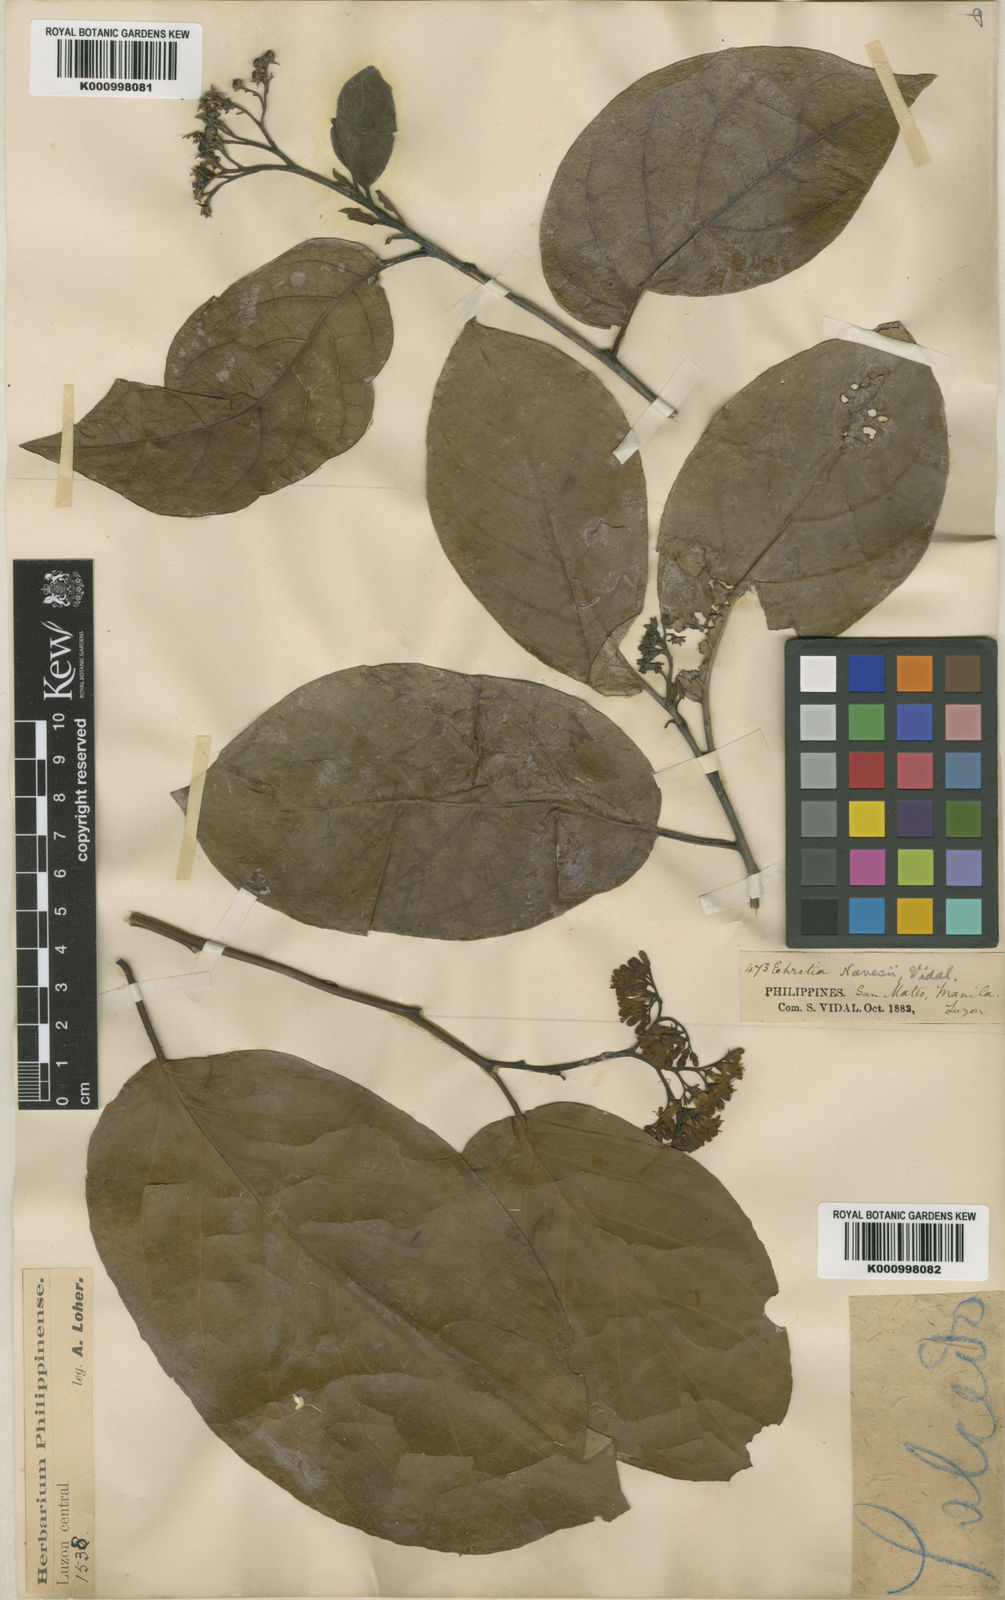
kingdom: Plantae
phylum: Tracheophyta
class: Magnoliopsida
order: Boraginales
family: Ehretiaceae
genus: Ehretia
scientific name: Ehretia resinosa
